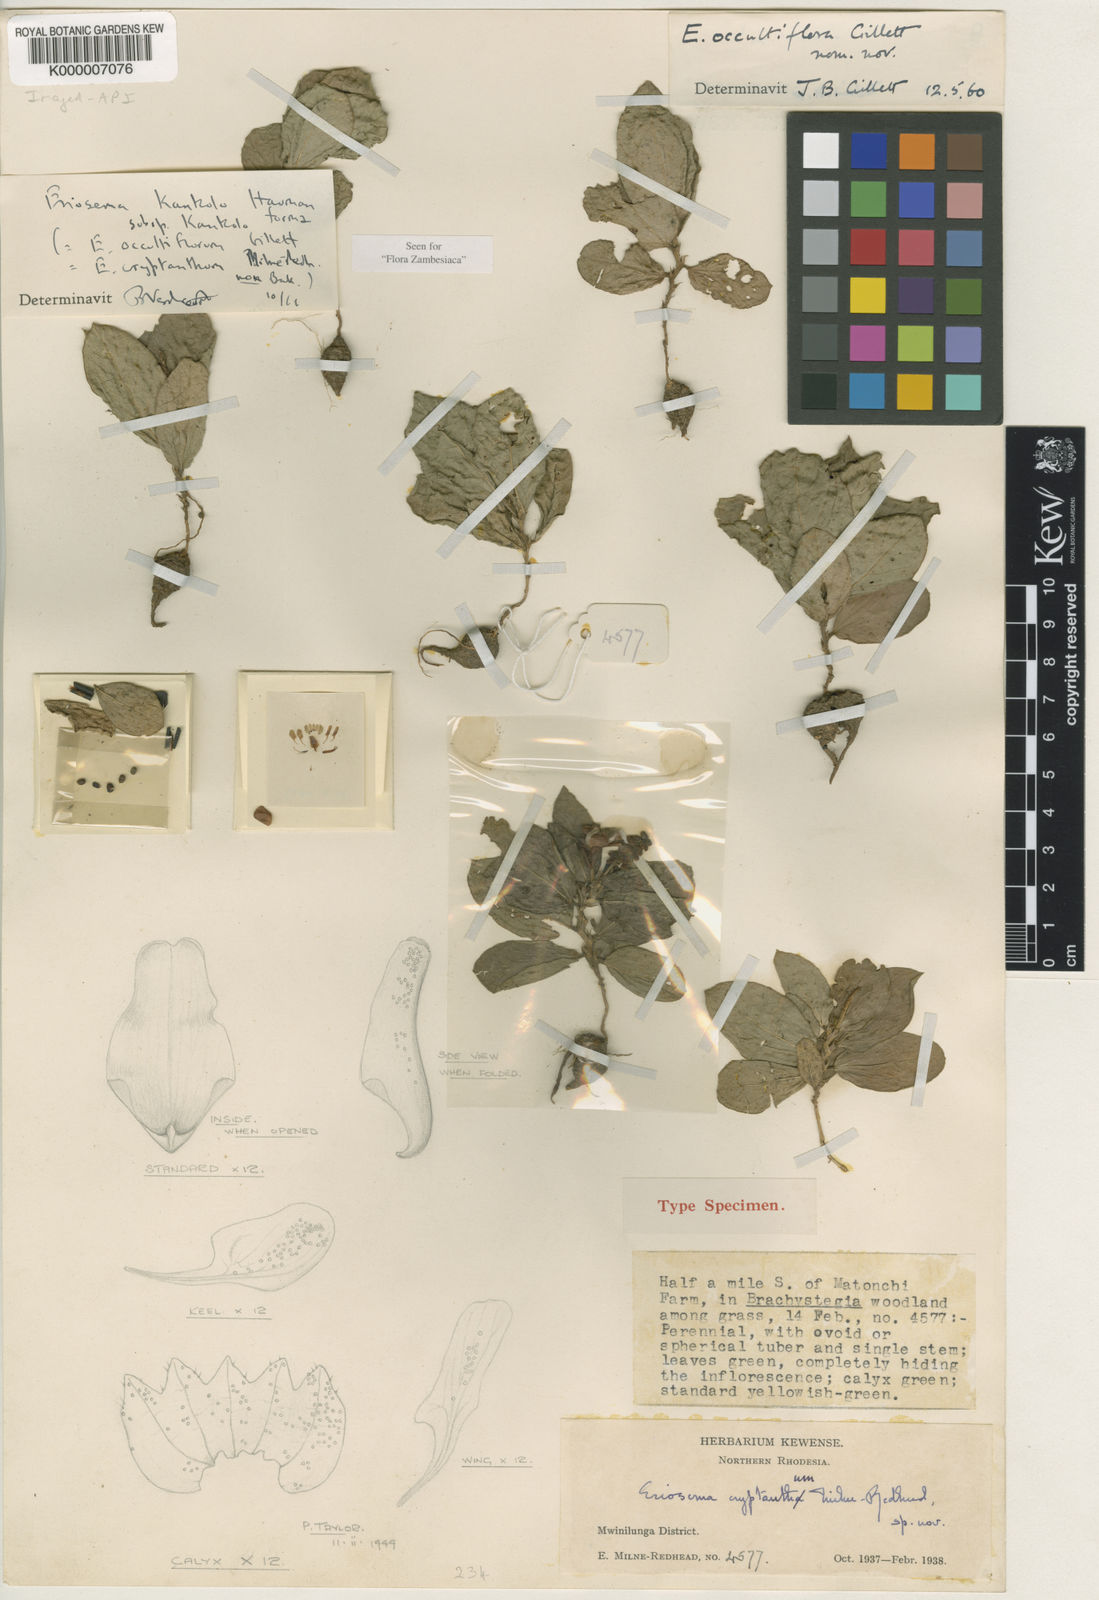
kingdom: Plantae
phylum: Tracheophyta
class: Magnoliopsida
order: Fabales
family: Fabaceae
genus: Eriosema
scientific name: Eriosema kankolo
